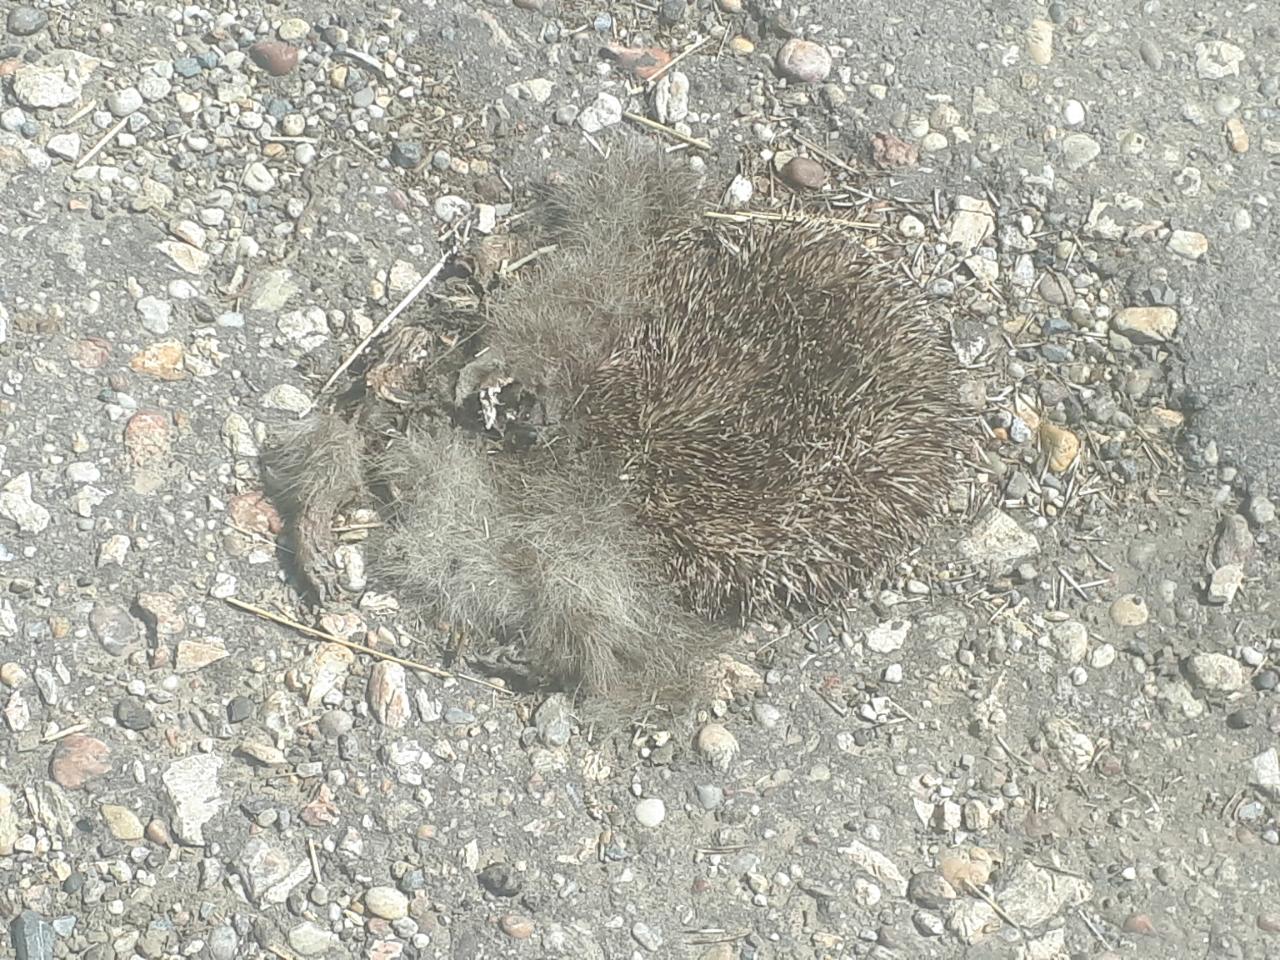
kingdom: Animalia
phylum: Chordata
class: Mammalia
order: Erinaceomorpha
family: Erinaceidae
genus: Erinaceus
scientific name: Erinaceus
